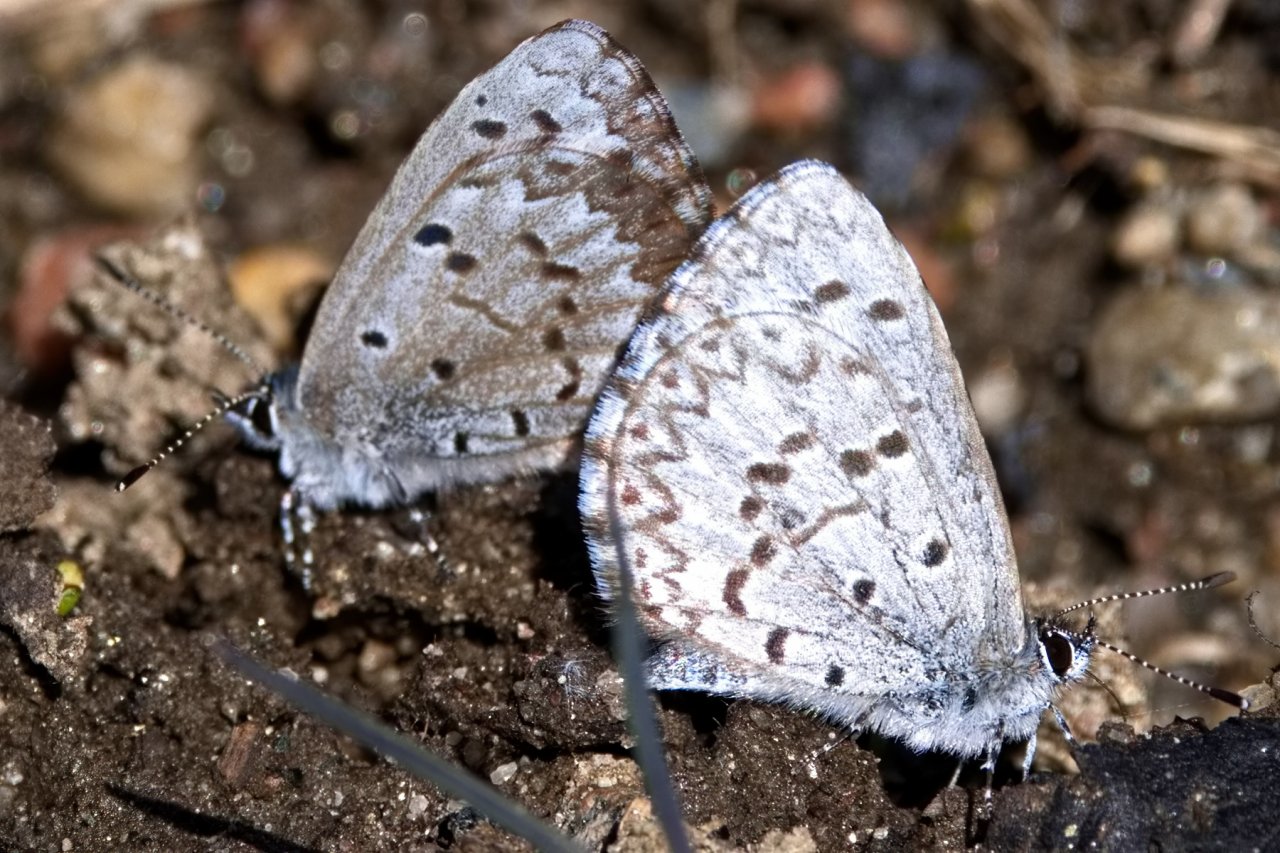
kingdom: Animalia
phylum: Arthropoda
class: Insecta
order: Lepidoptera
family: Lycaenidae
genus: Celastrina
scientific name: Celastrina lucia
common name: Northern Spring Azure
